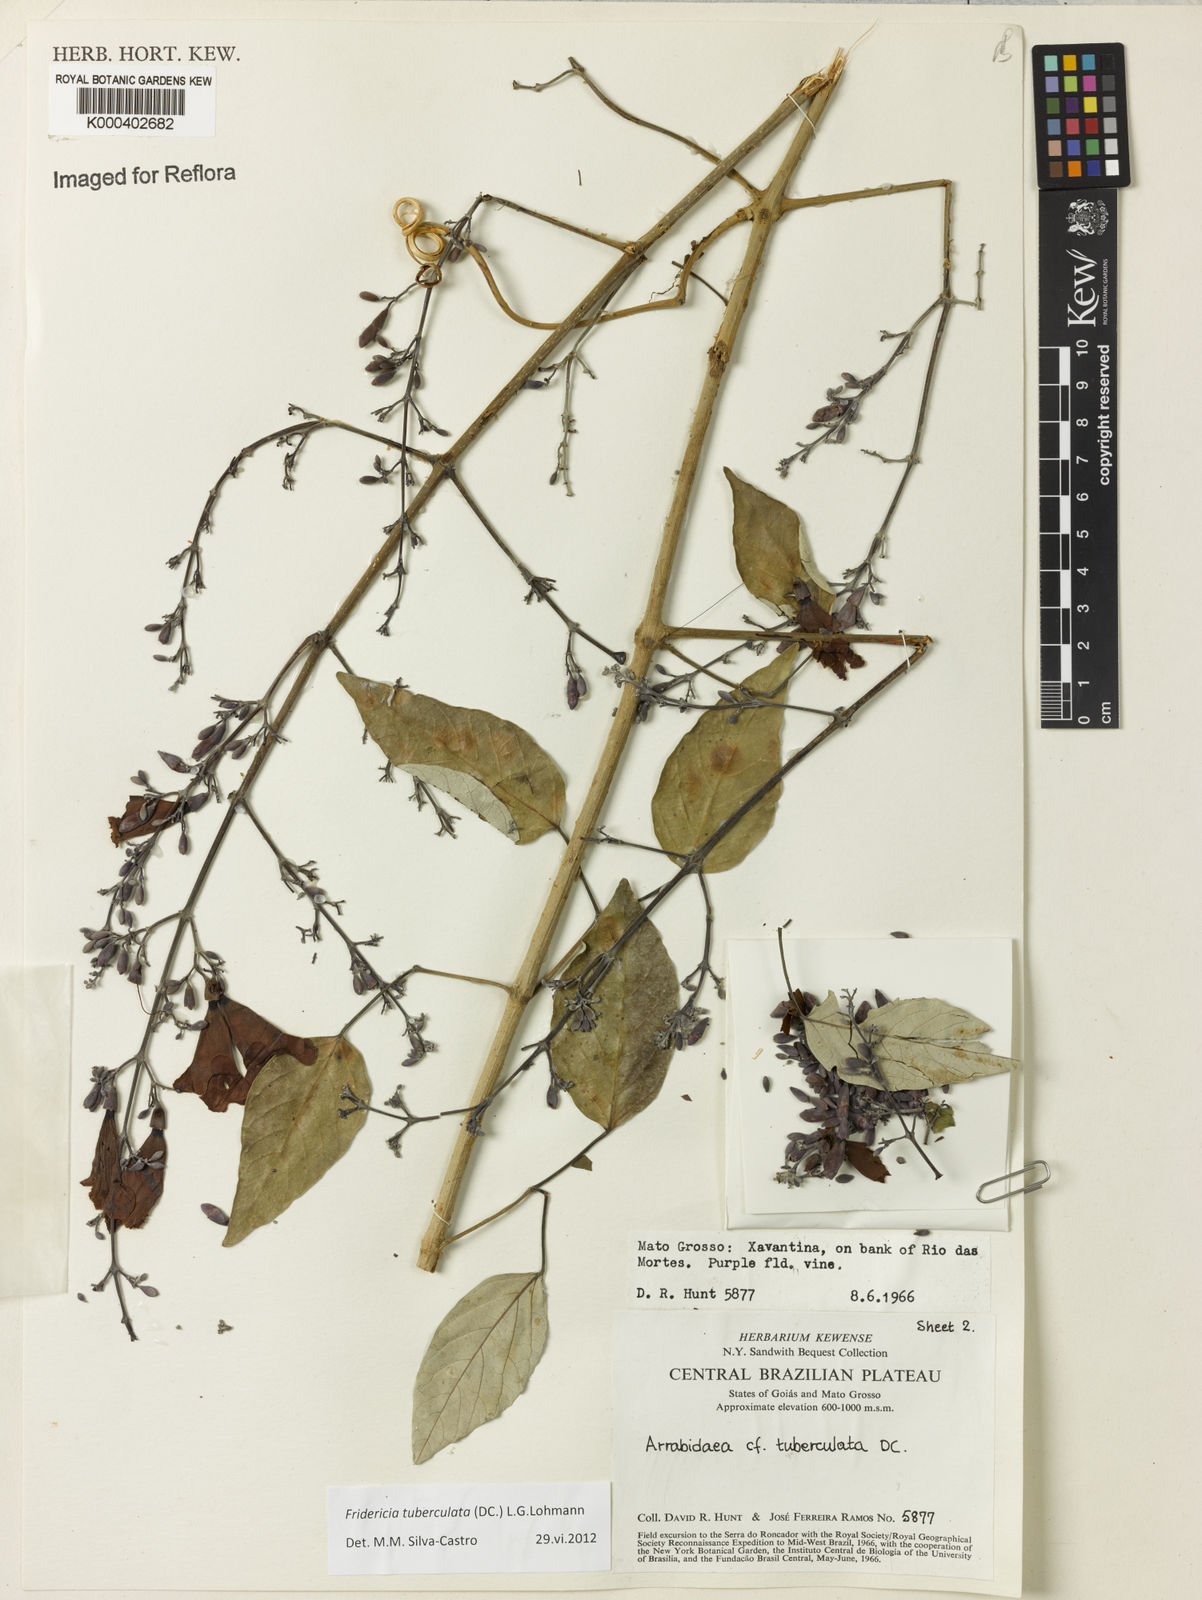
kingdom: Plantae
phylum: Tracheophyta
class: Magnoliopsida
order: Lamiales
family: Bignoniaceae
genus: Fridericia
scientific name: Fridericia tuberculata
